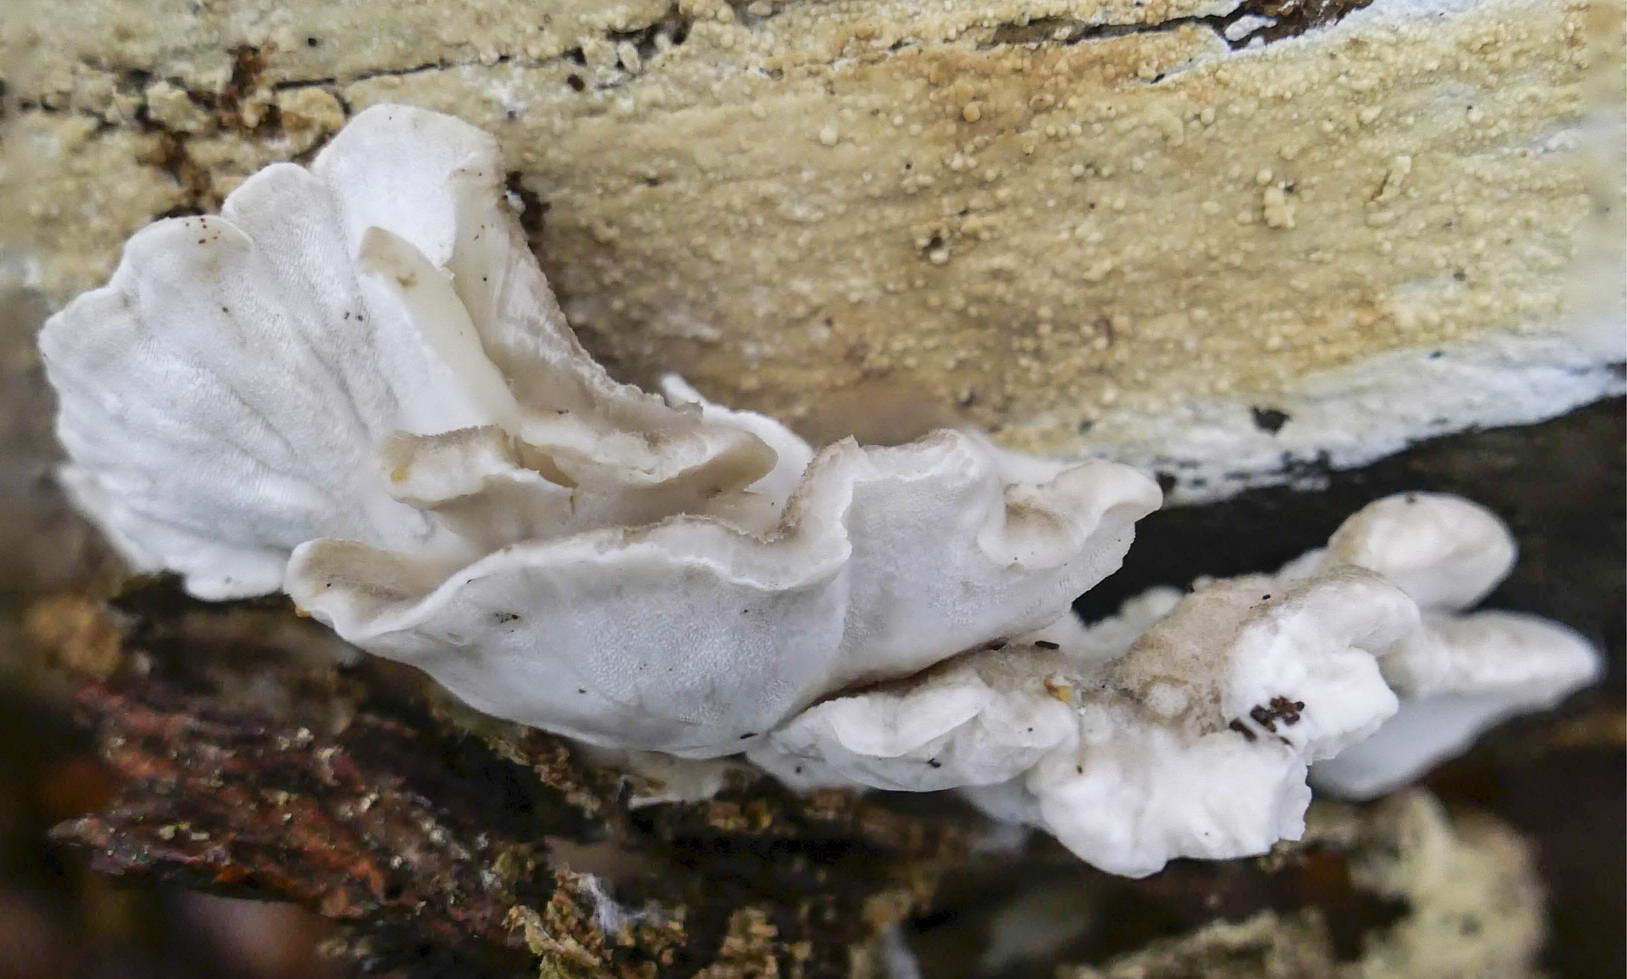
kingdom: Fungi
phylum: Basidiomycota
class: Agaricomycetes
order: Polyporales
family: Incrustoporiaceae
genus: Tyromyces
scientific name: Tyromyces lacteus
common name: mælkehvid kødporesvamp
